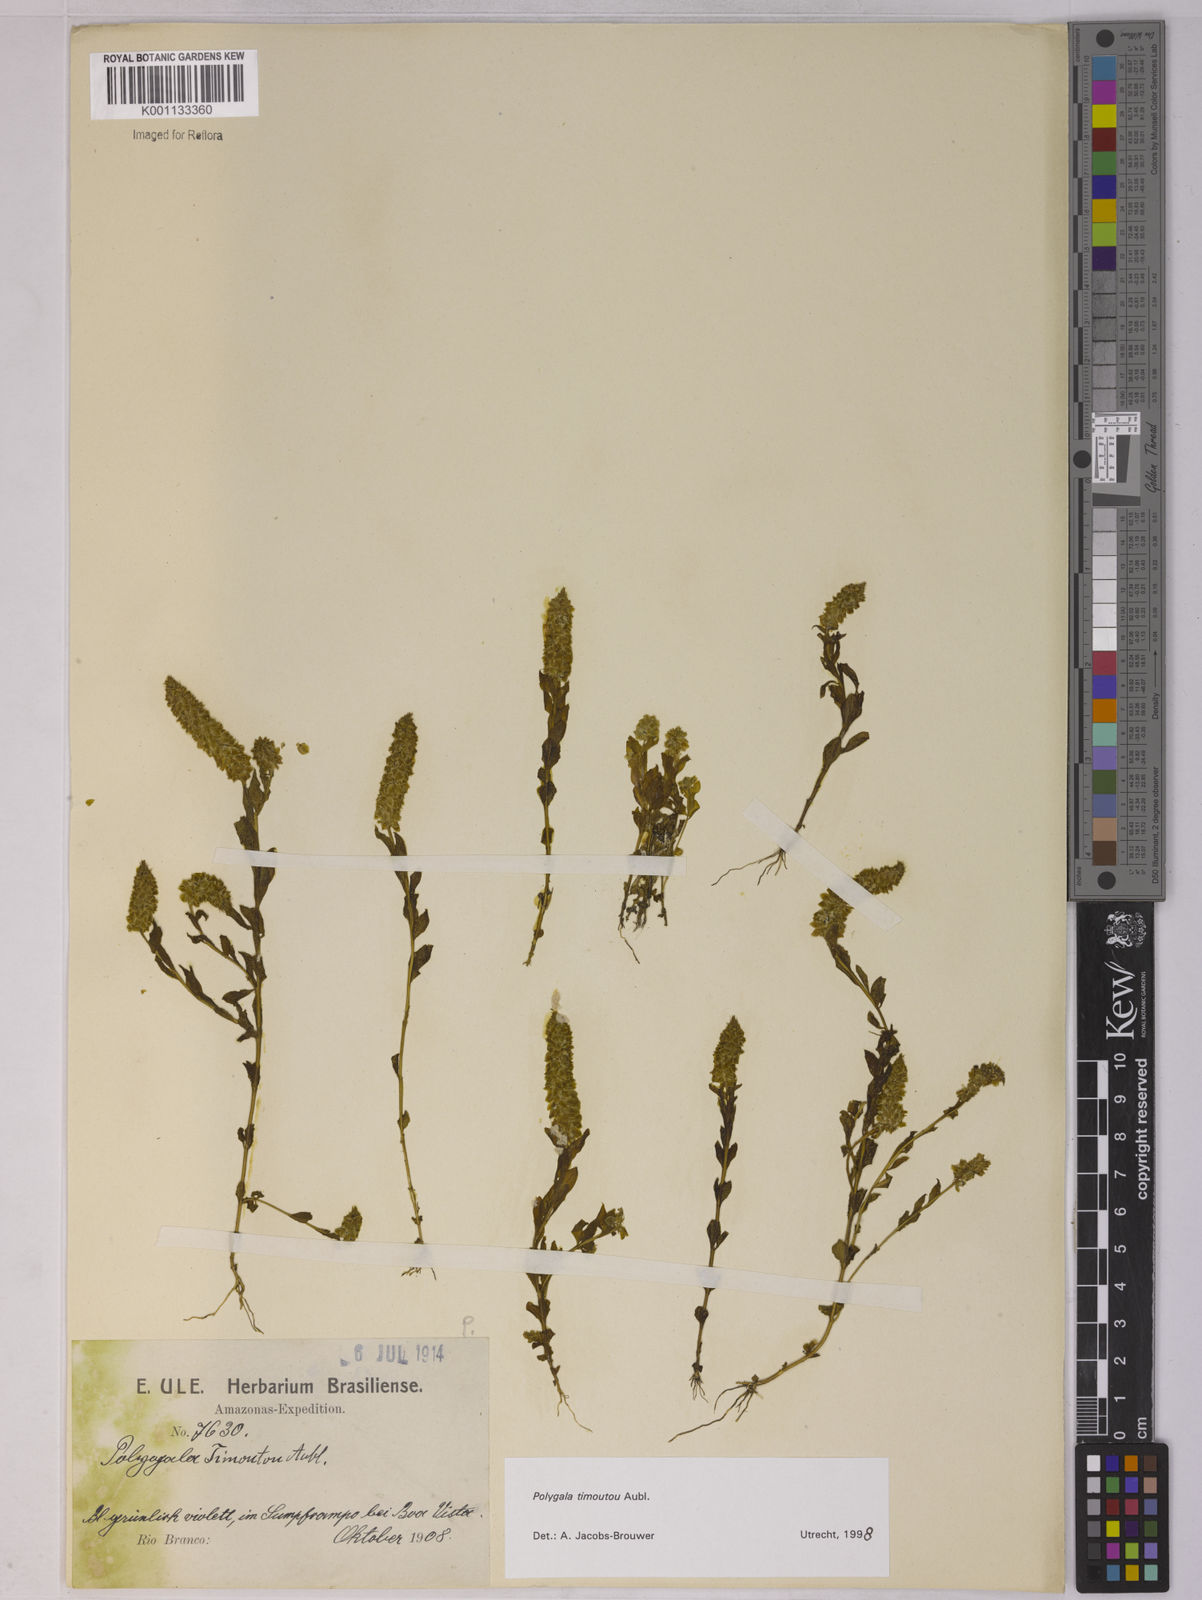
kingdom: Plantae
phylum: Tracheophyta
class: Magnoliopsida
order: Fabales
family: Polygalaceae
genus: Polygala
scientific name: Polygala timoutoides
